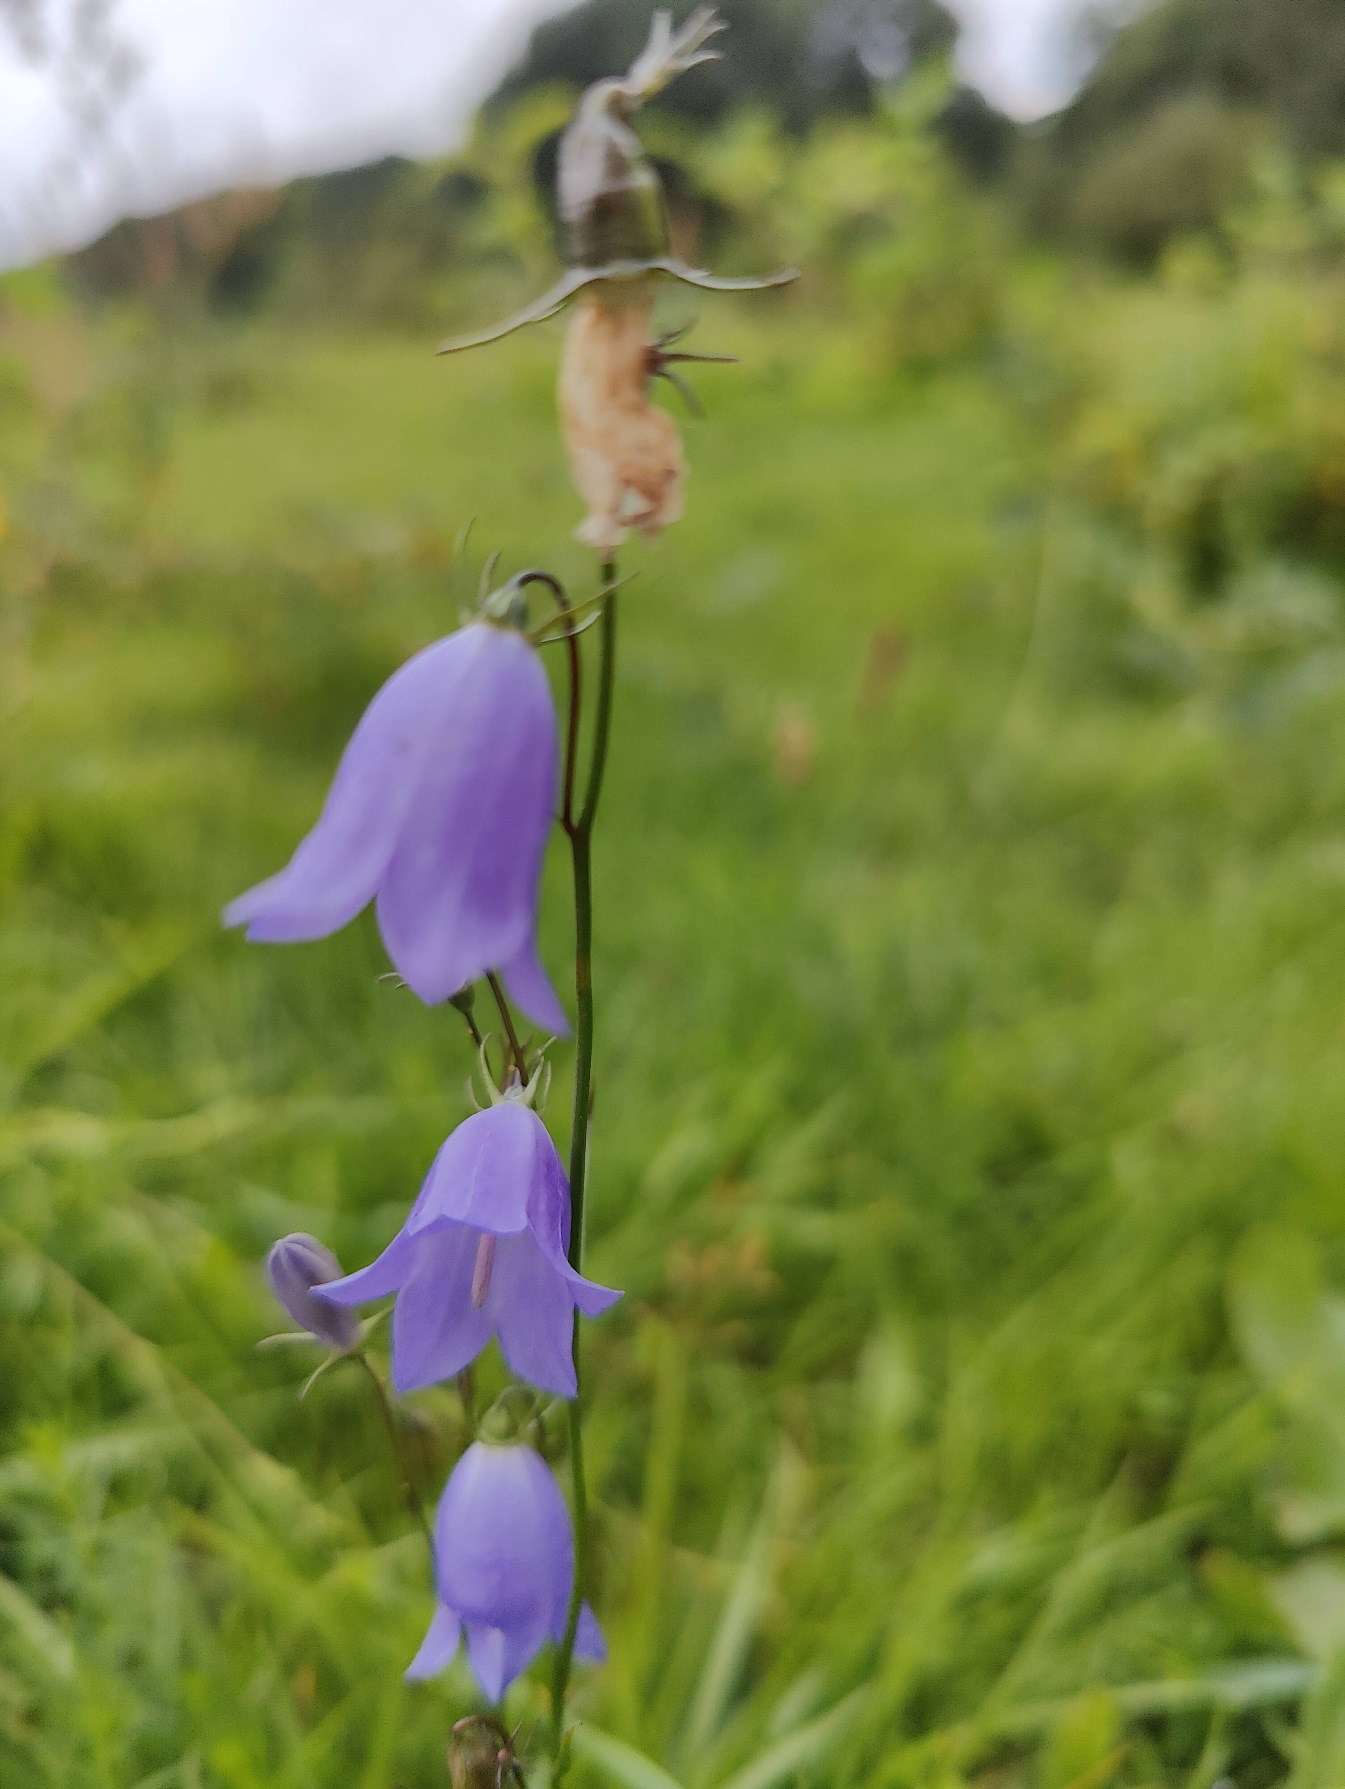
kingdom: Plantae
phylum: Tracheophyta
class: Magnoliopsida
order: Asterales
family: Campanulaceae
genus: Campanula
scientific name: Campanula rotundifolia
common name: Liden klokke
